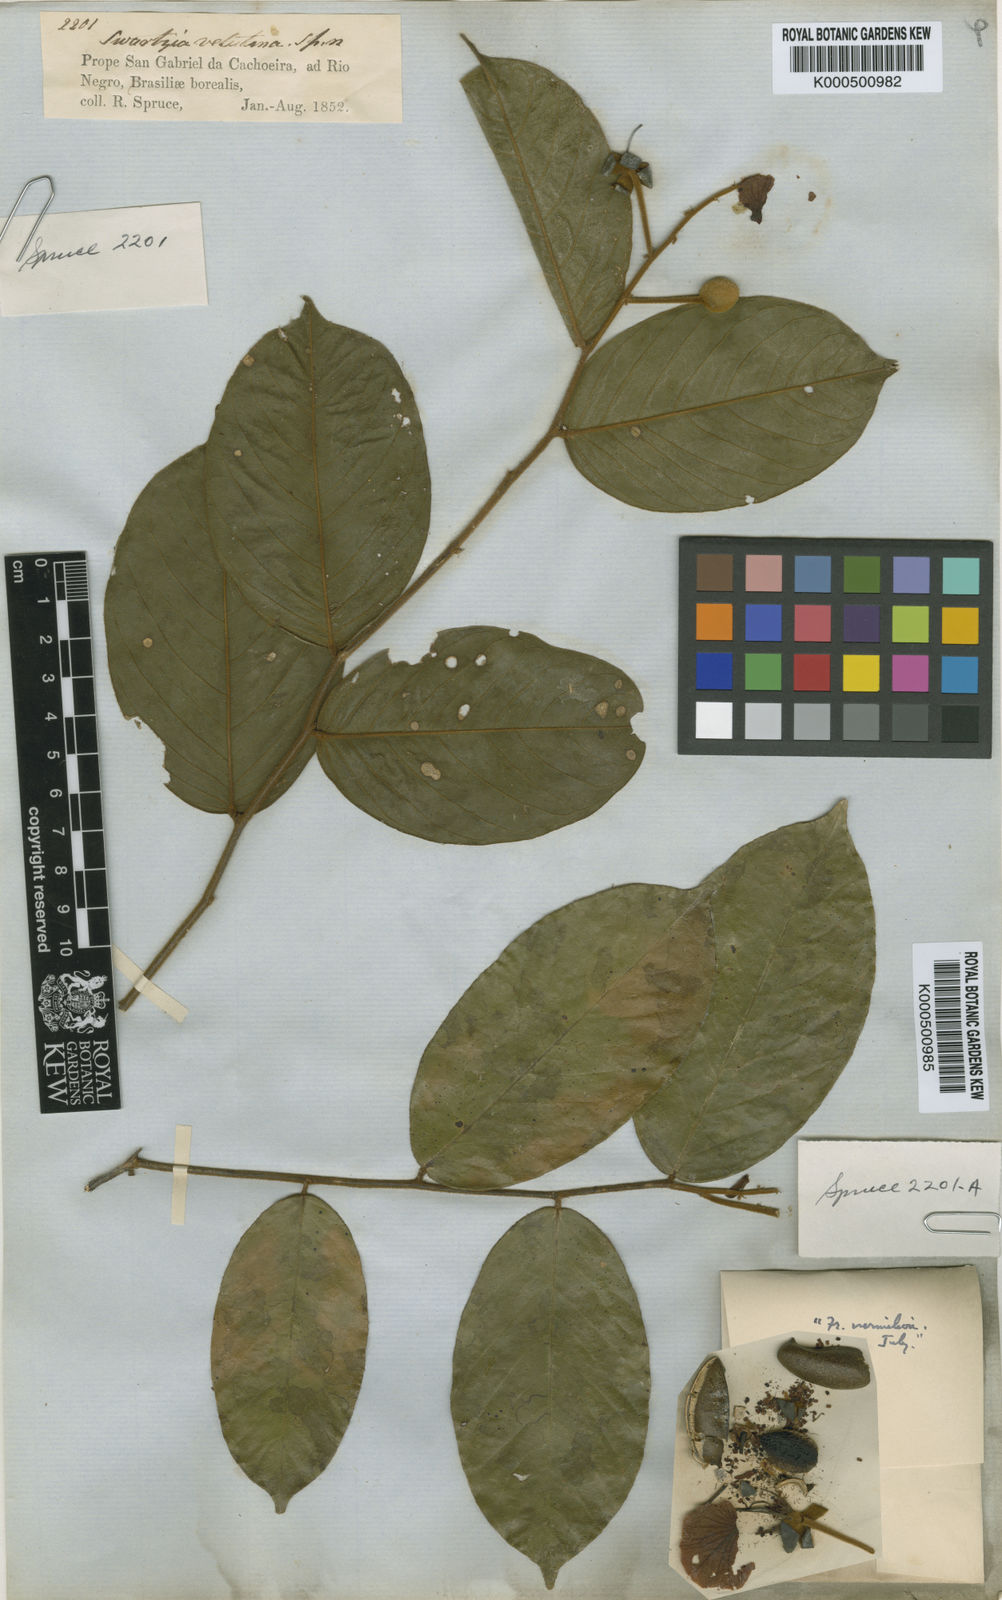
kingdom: Plantae
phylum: Tracheophyta
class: Magnoliopsida
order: Fabales
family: Fabaceae
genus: Swartzia
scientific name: Swartzia velutina
